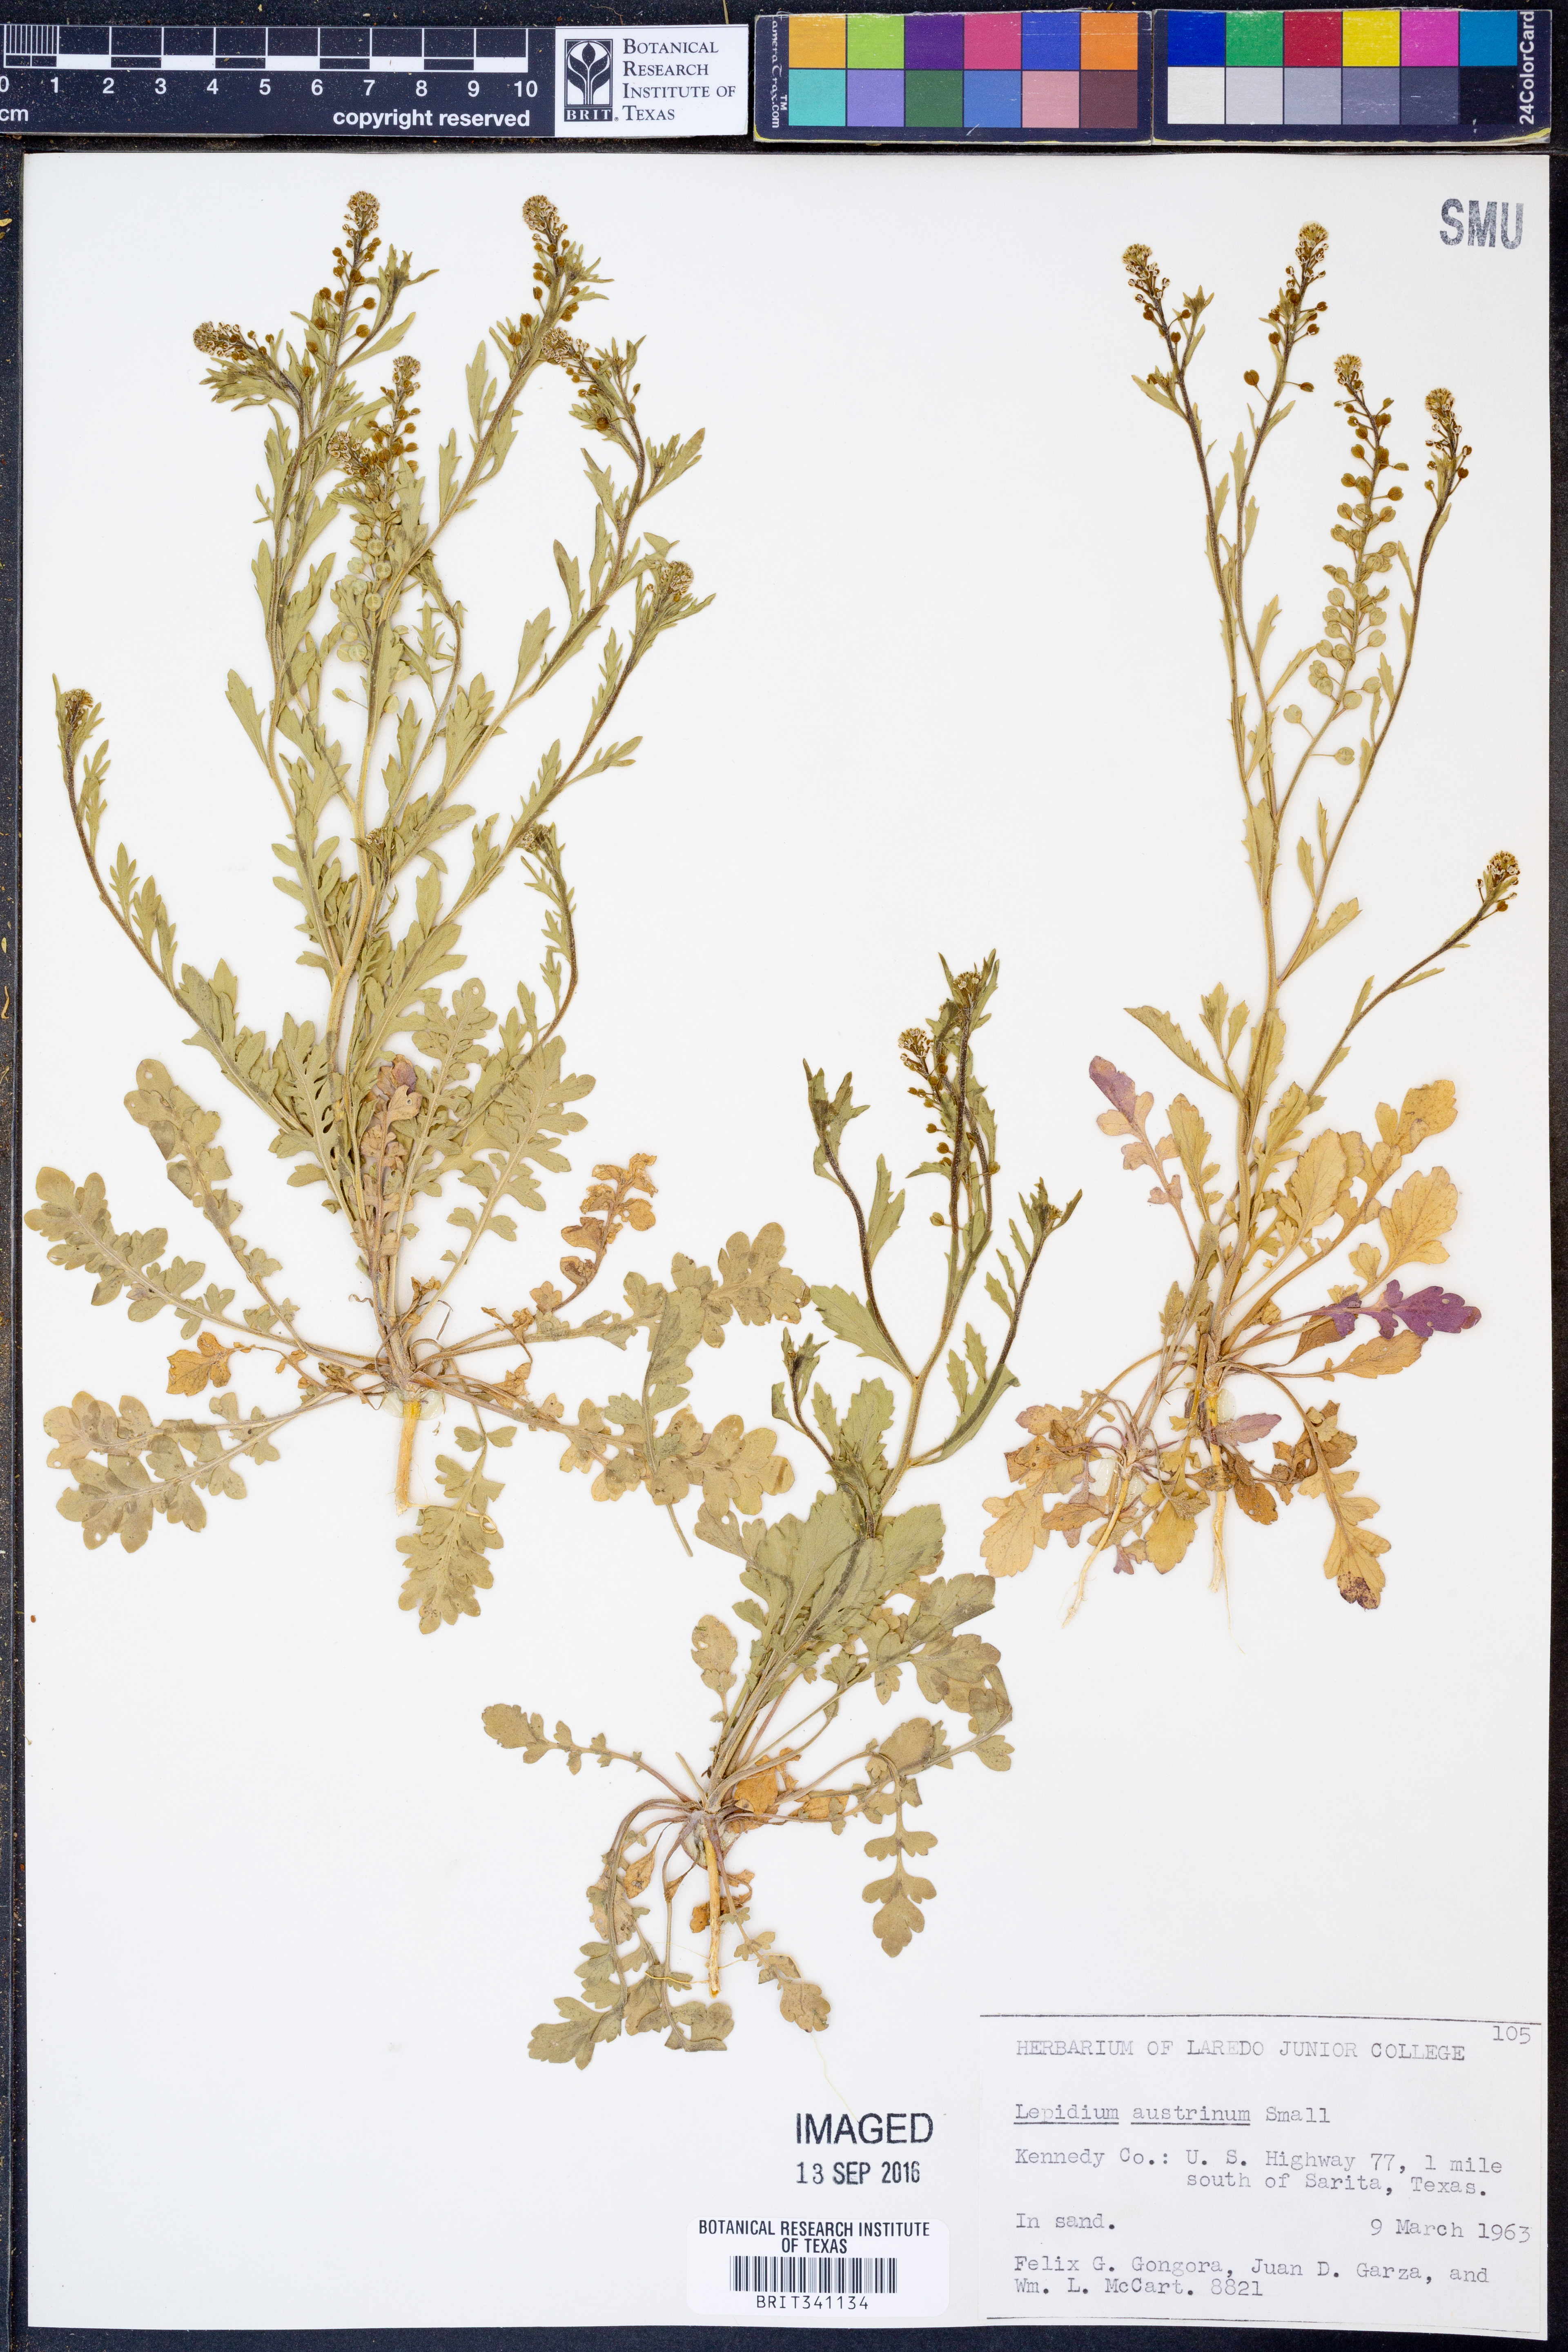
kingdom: Plantae
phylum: Tracheophyta
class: Magnoliopsida
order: Brassicales
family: Brassicaceae
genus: Lepidium
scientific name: Lepidium austrinum
